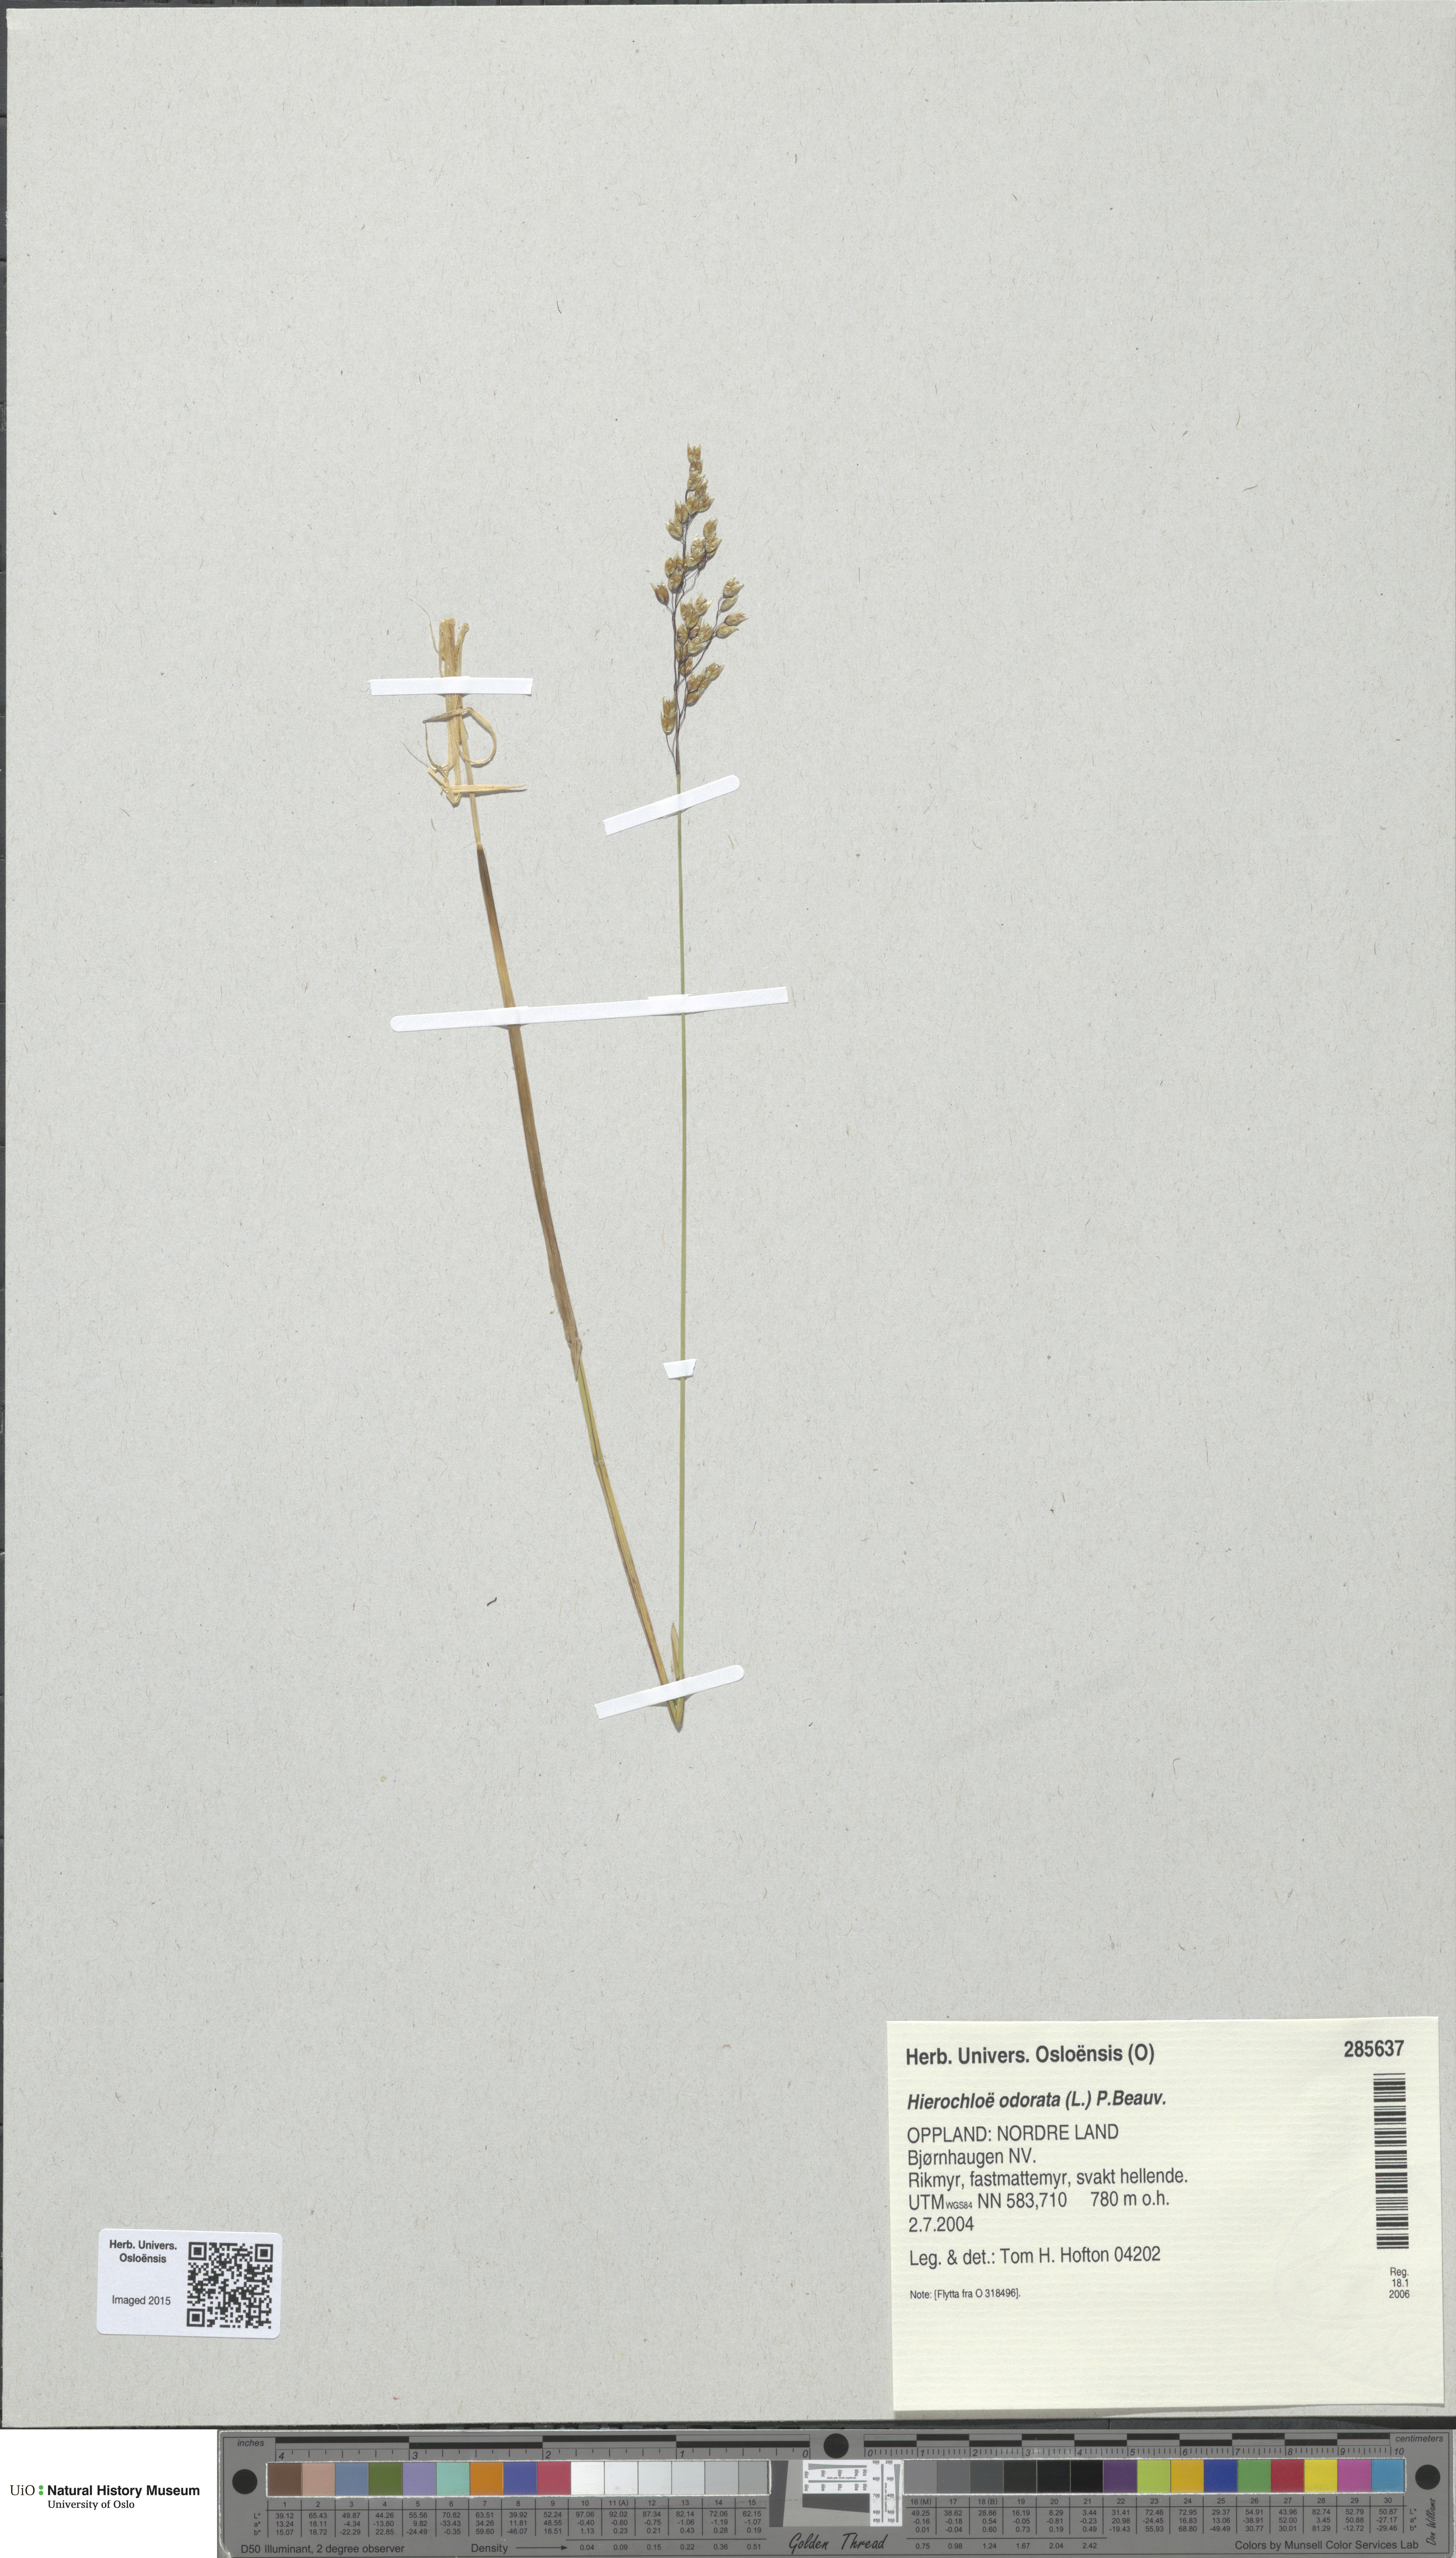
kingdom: Plantae
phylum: Tracheophyta
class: Liliopsida
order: Poales
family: Poaceae
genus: Anthoxanthum
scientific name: Anthoxanthum nitens
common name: Holy grass
